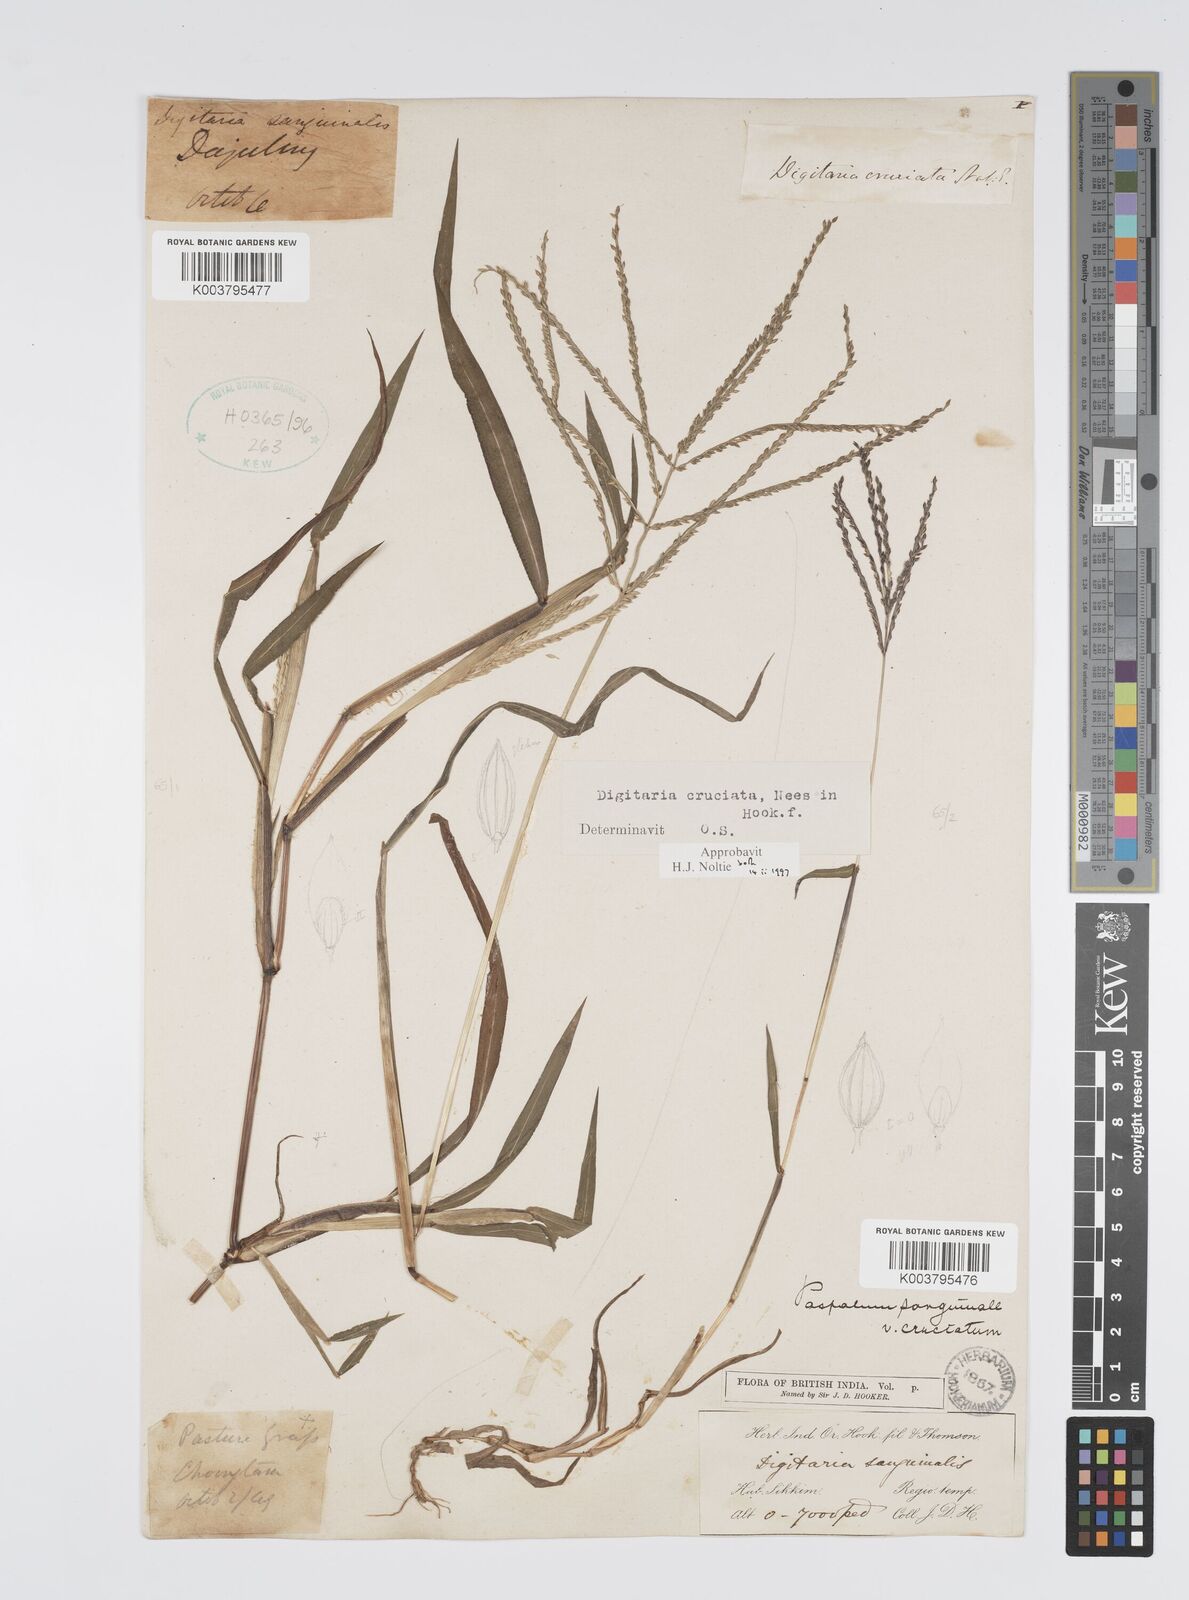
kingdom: Plantae
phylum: Tracheophyta
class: Liliopsida
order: Poales
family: Poaceae
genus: Digitaria
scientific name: Digitaria cruciata
